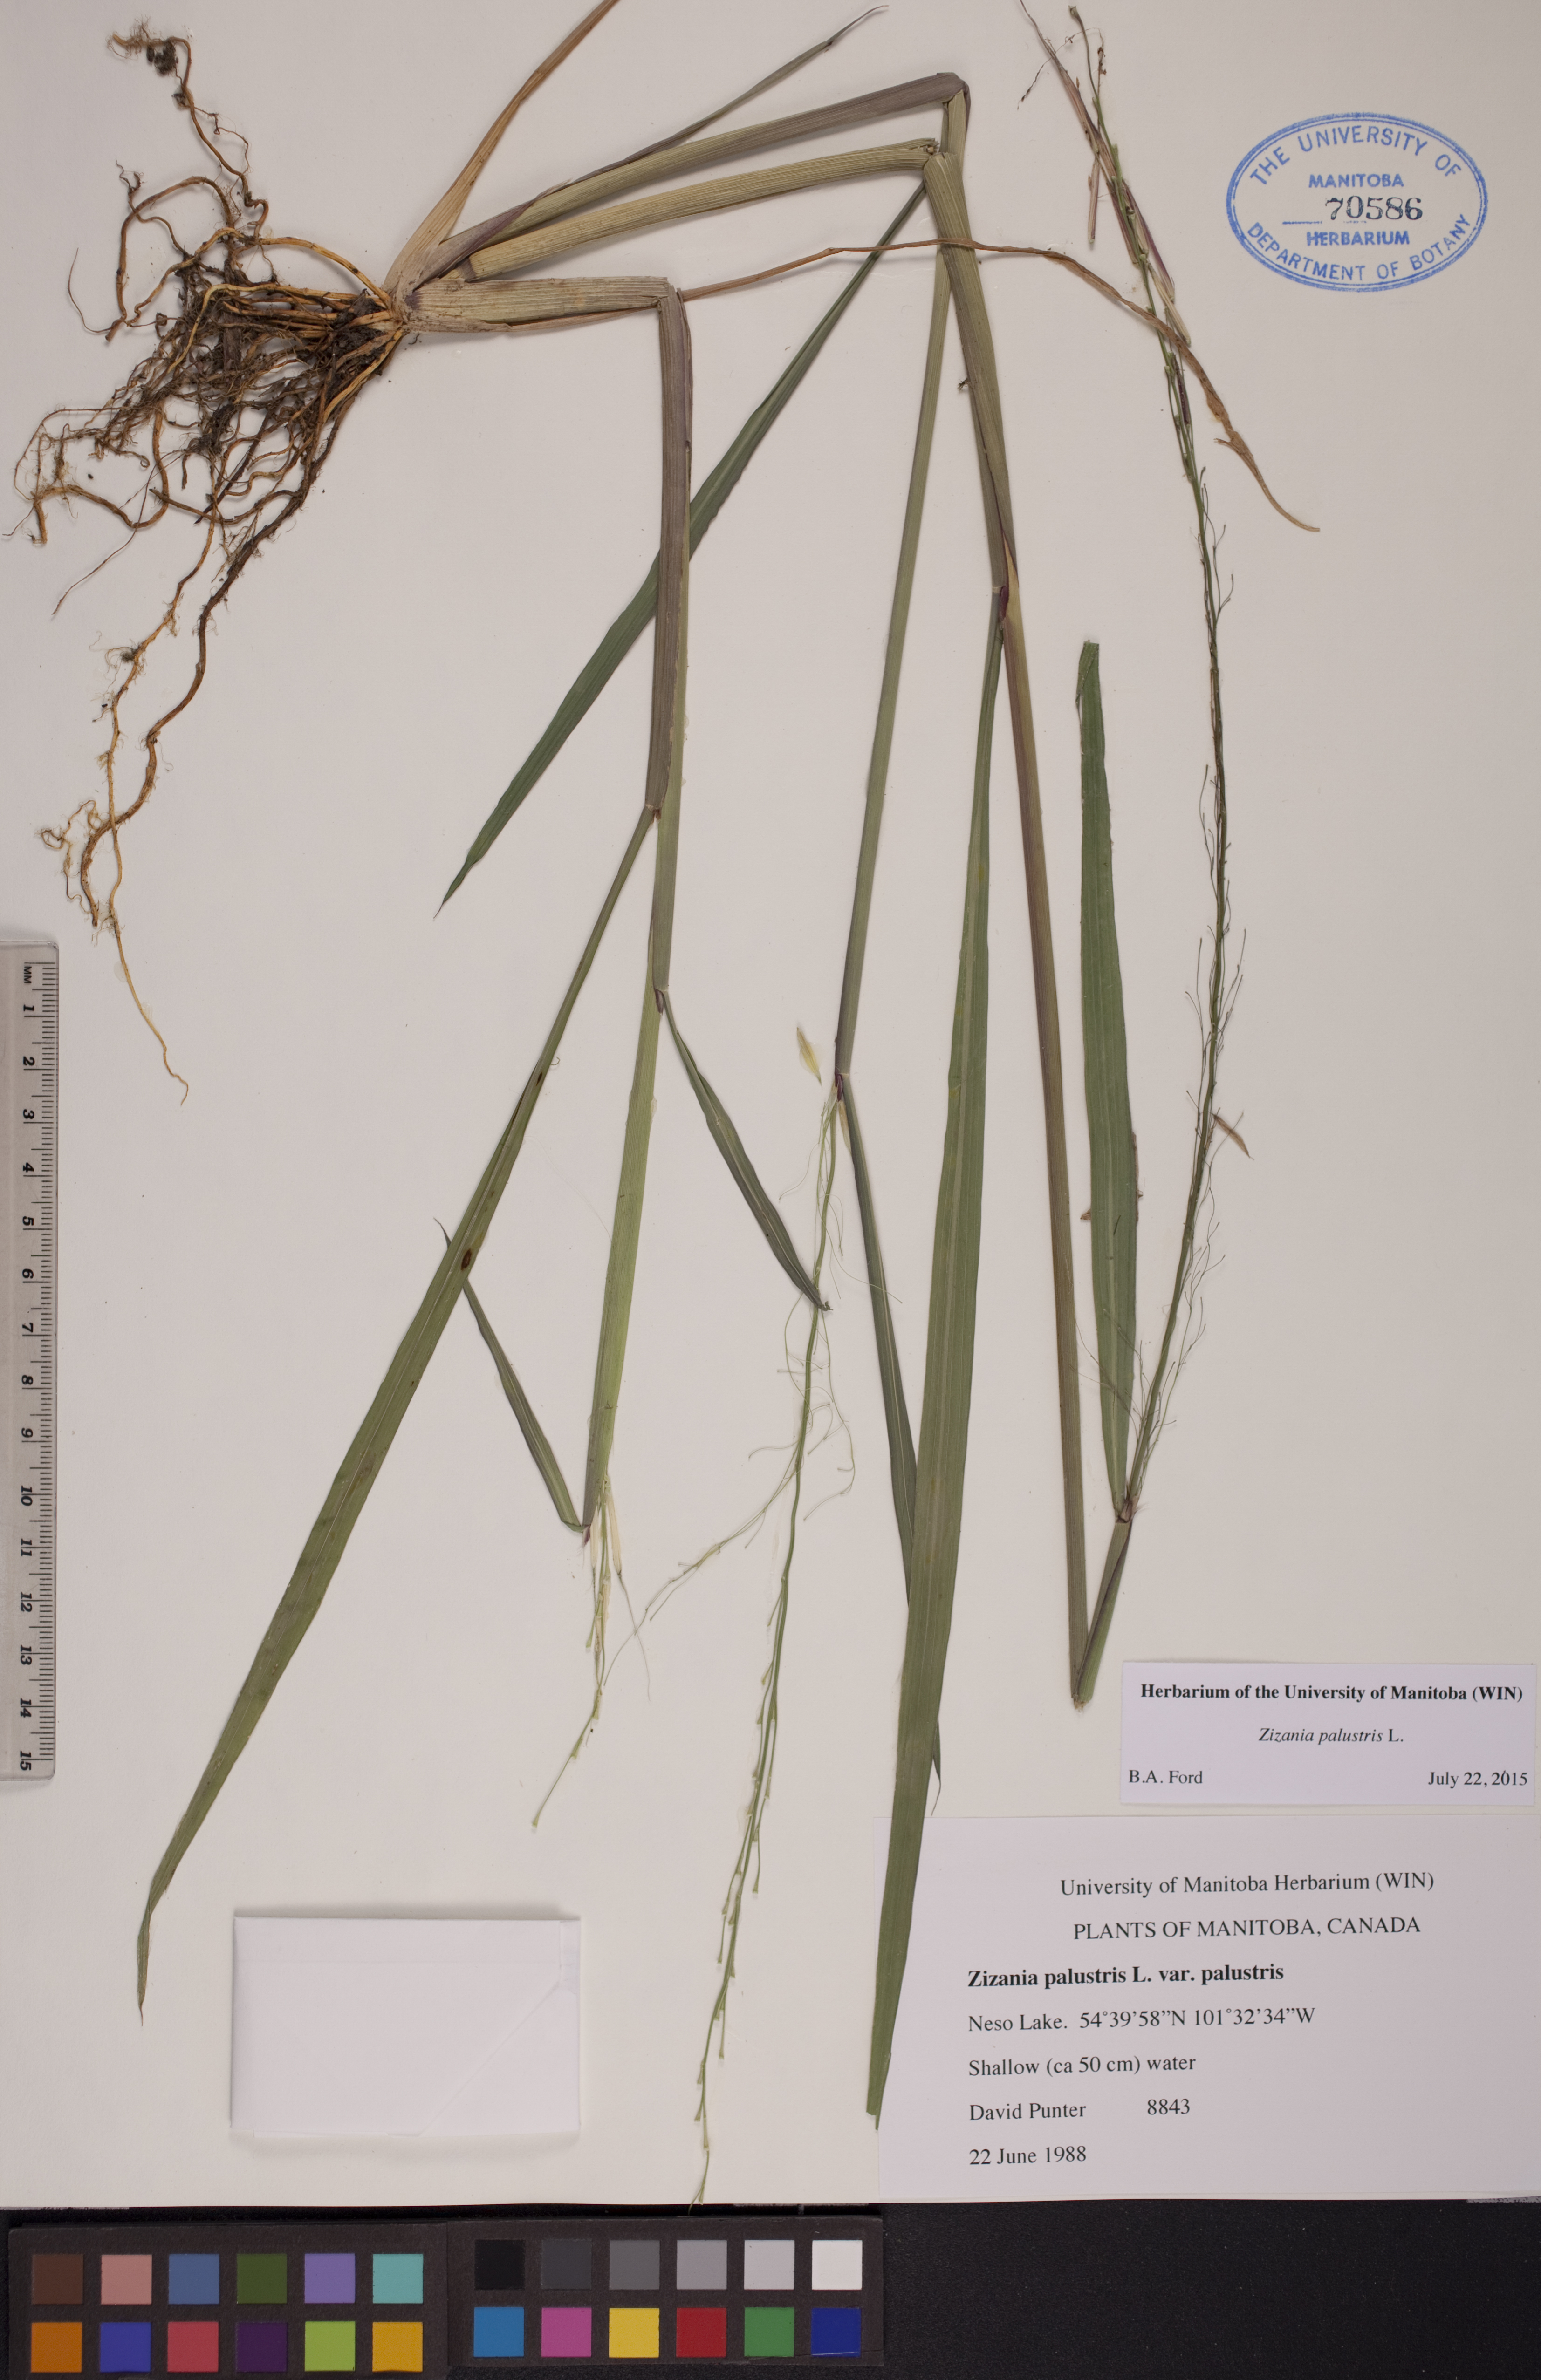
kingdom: Plantae
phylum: Tracheophyta
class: Liliopsida
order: Poales
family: Poaceae
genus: Zizania
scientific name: Zizania palustris
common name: Northern wild rice
